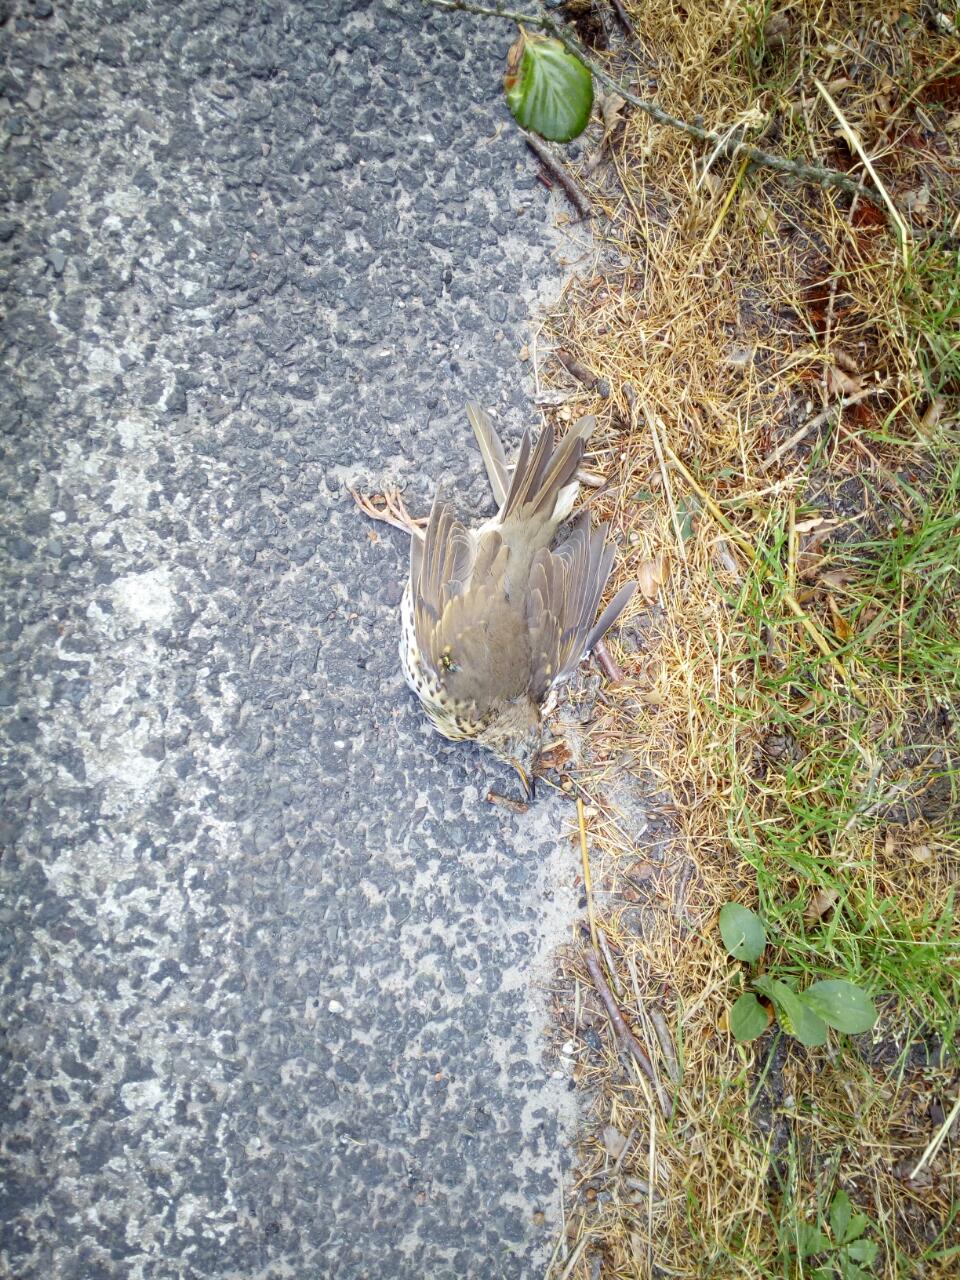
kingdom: Animalia
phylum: Chordata
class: Aves
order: Passeriformes
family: Turdidae
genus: Turdus
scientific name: Turdus philomelos
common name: Song thrush
